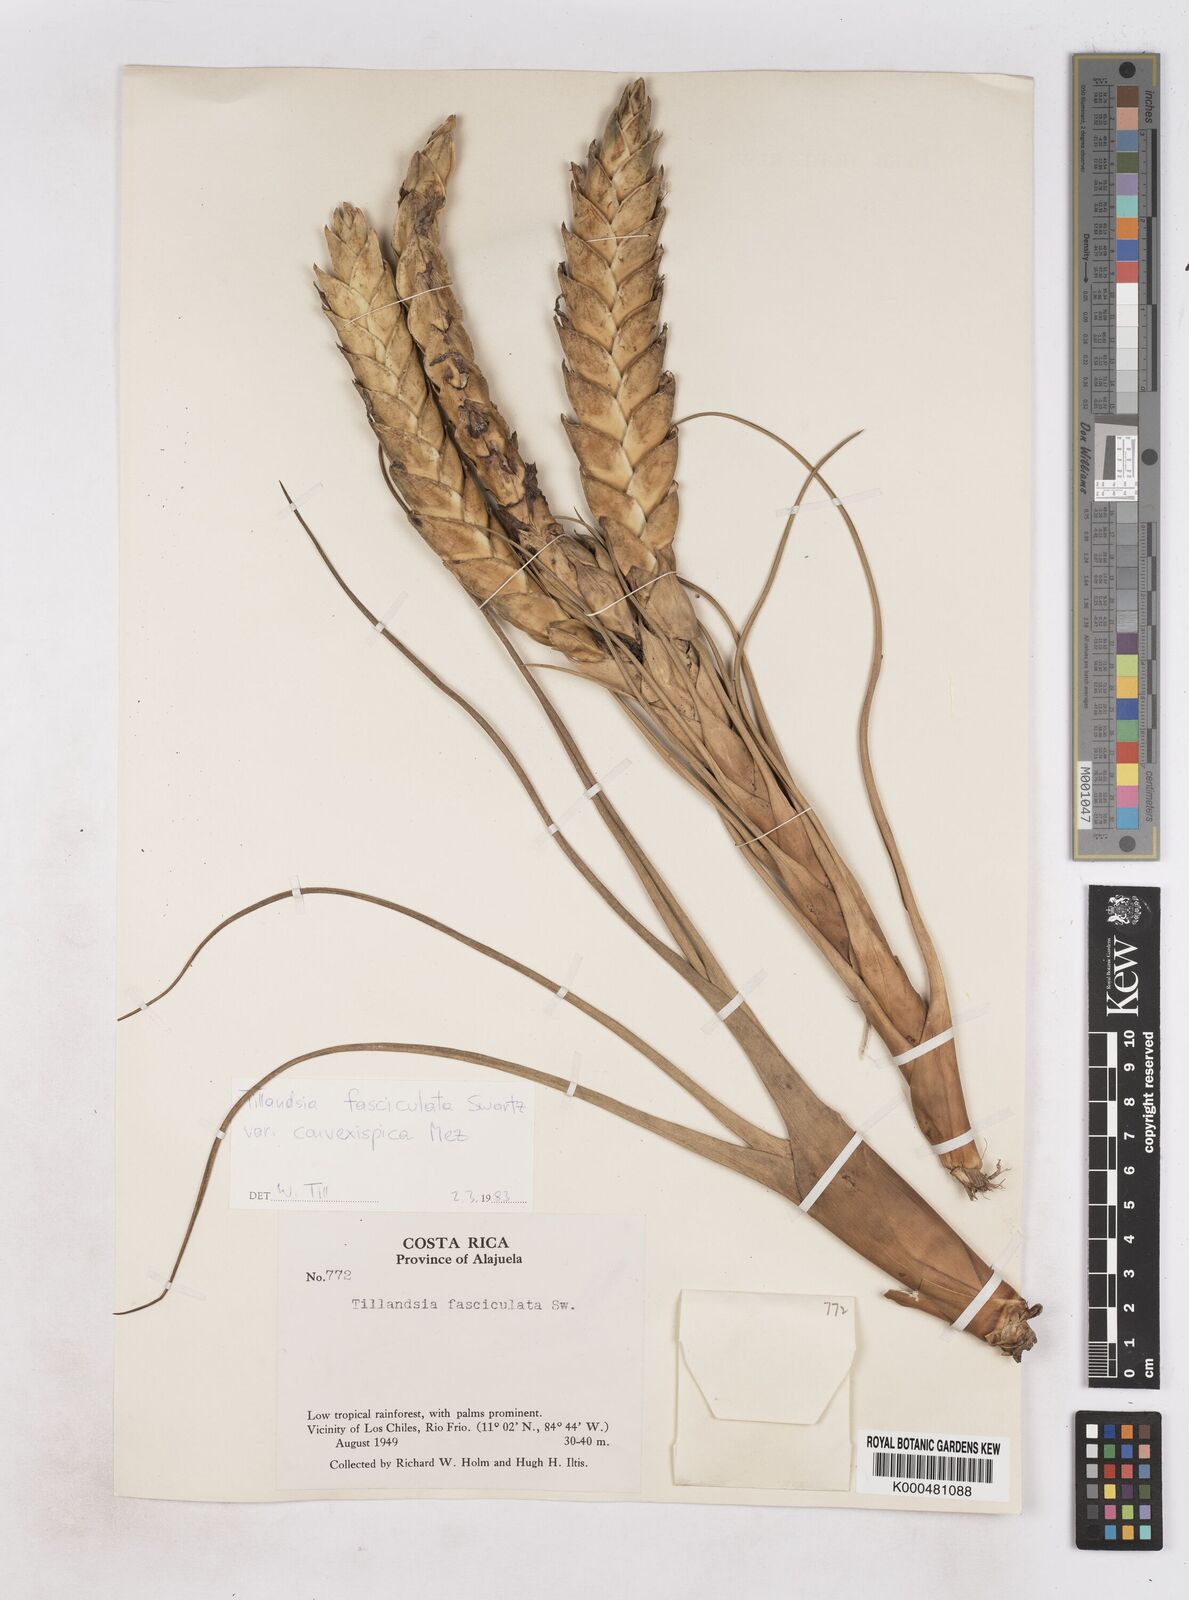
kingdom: Plantae
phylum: Tracheophyta
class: Liliopsida
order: Poales
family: Bromeliaceae
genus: Tillandsia
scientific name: Tillandsia fasciculata
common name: Giant airplant
